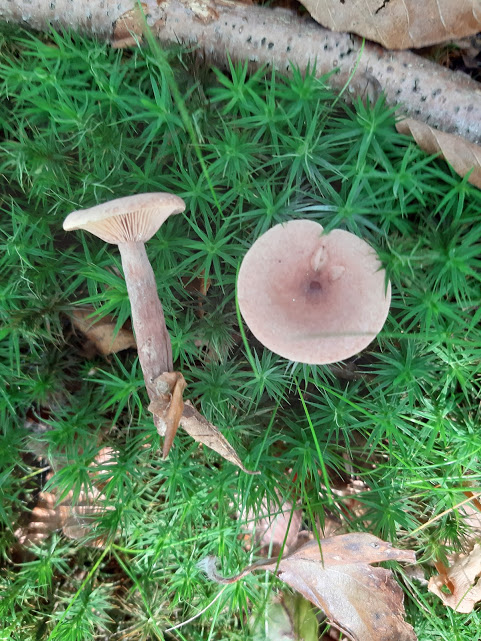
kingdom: Fungi
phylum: Basidiomycota
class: Agaricomycetes
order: Russulales
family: Russulaceae
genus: Lactarius
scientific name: Lactarius camphoratus
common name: kamfer-mælkehat
